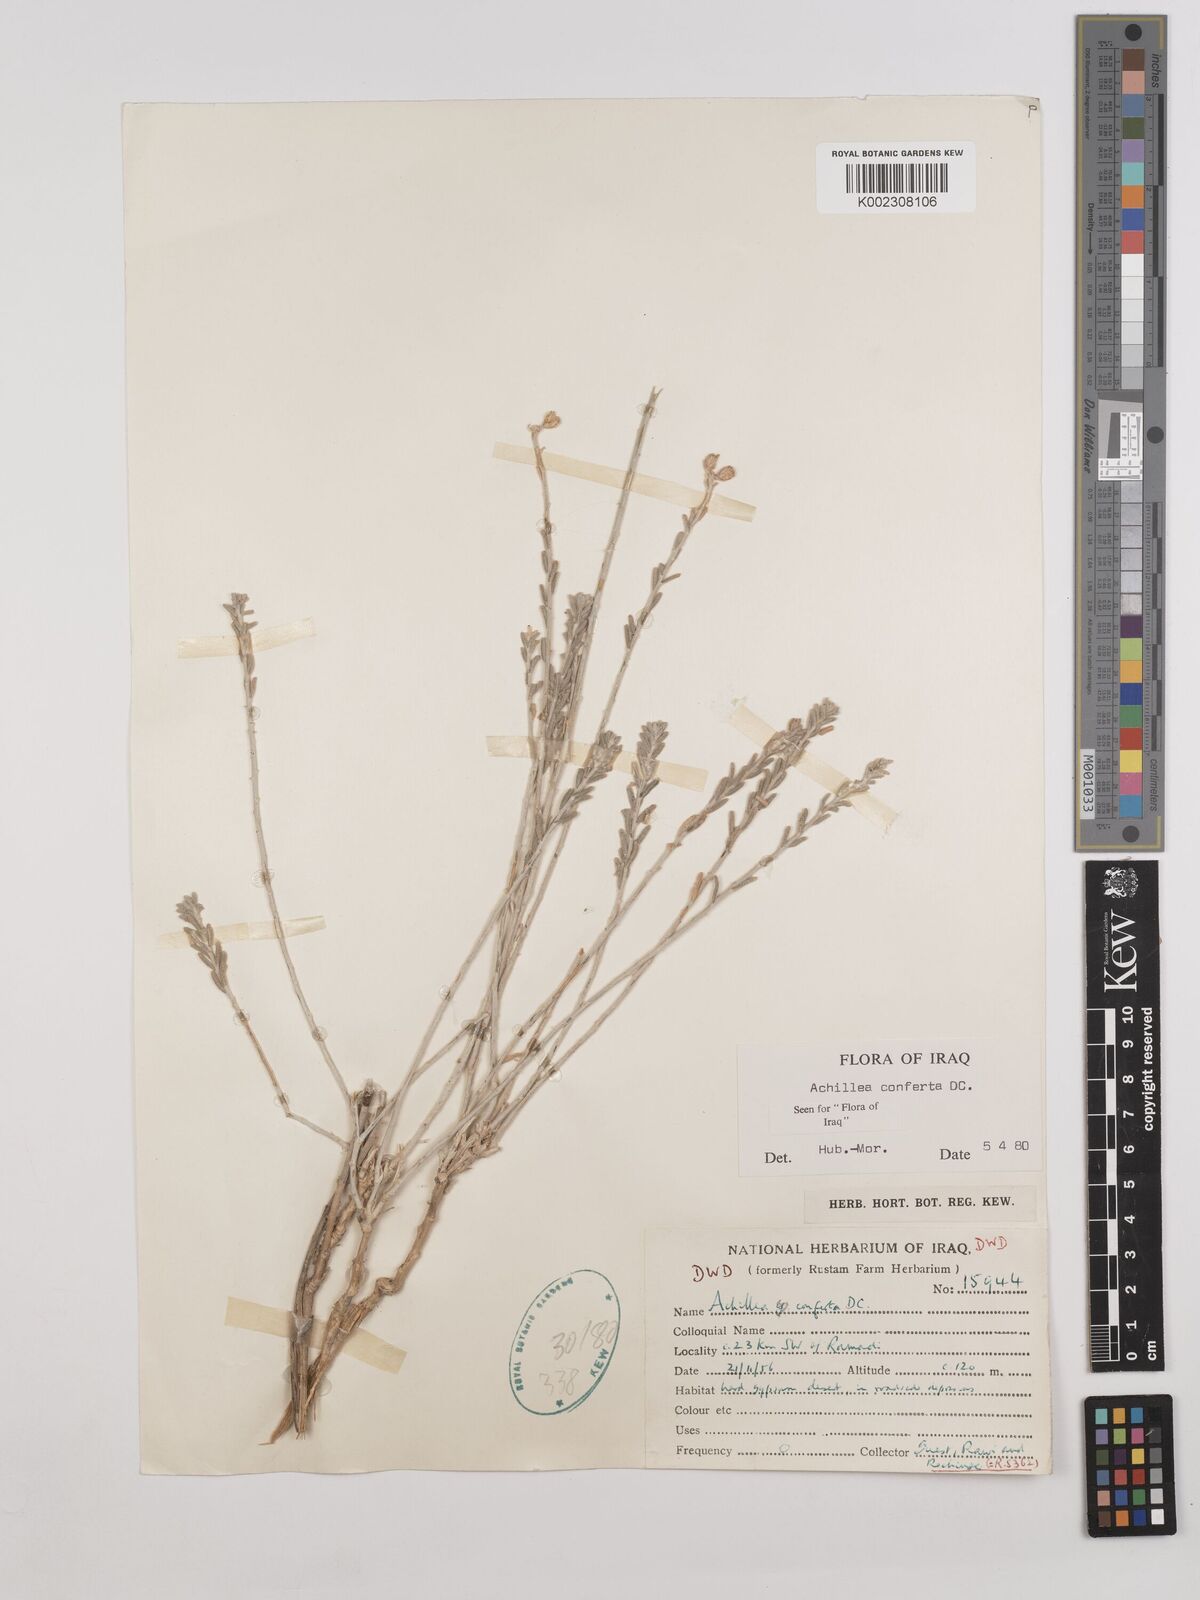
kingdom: Plantae
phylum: Tracheophyta
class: Magnoliopsida
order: Asterales
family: Asteraceae
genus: Achillea
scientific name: Achillea conferta
